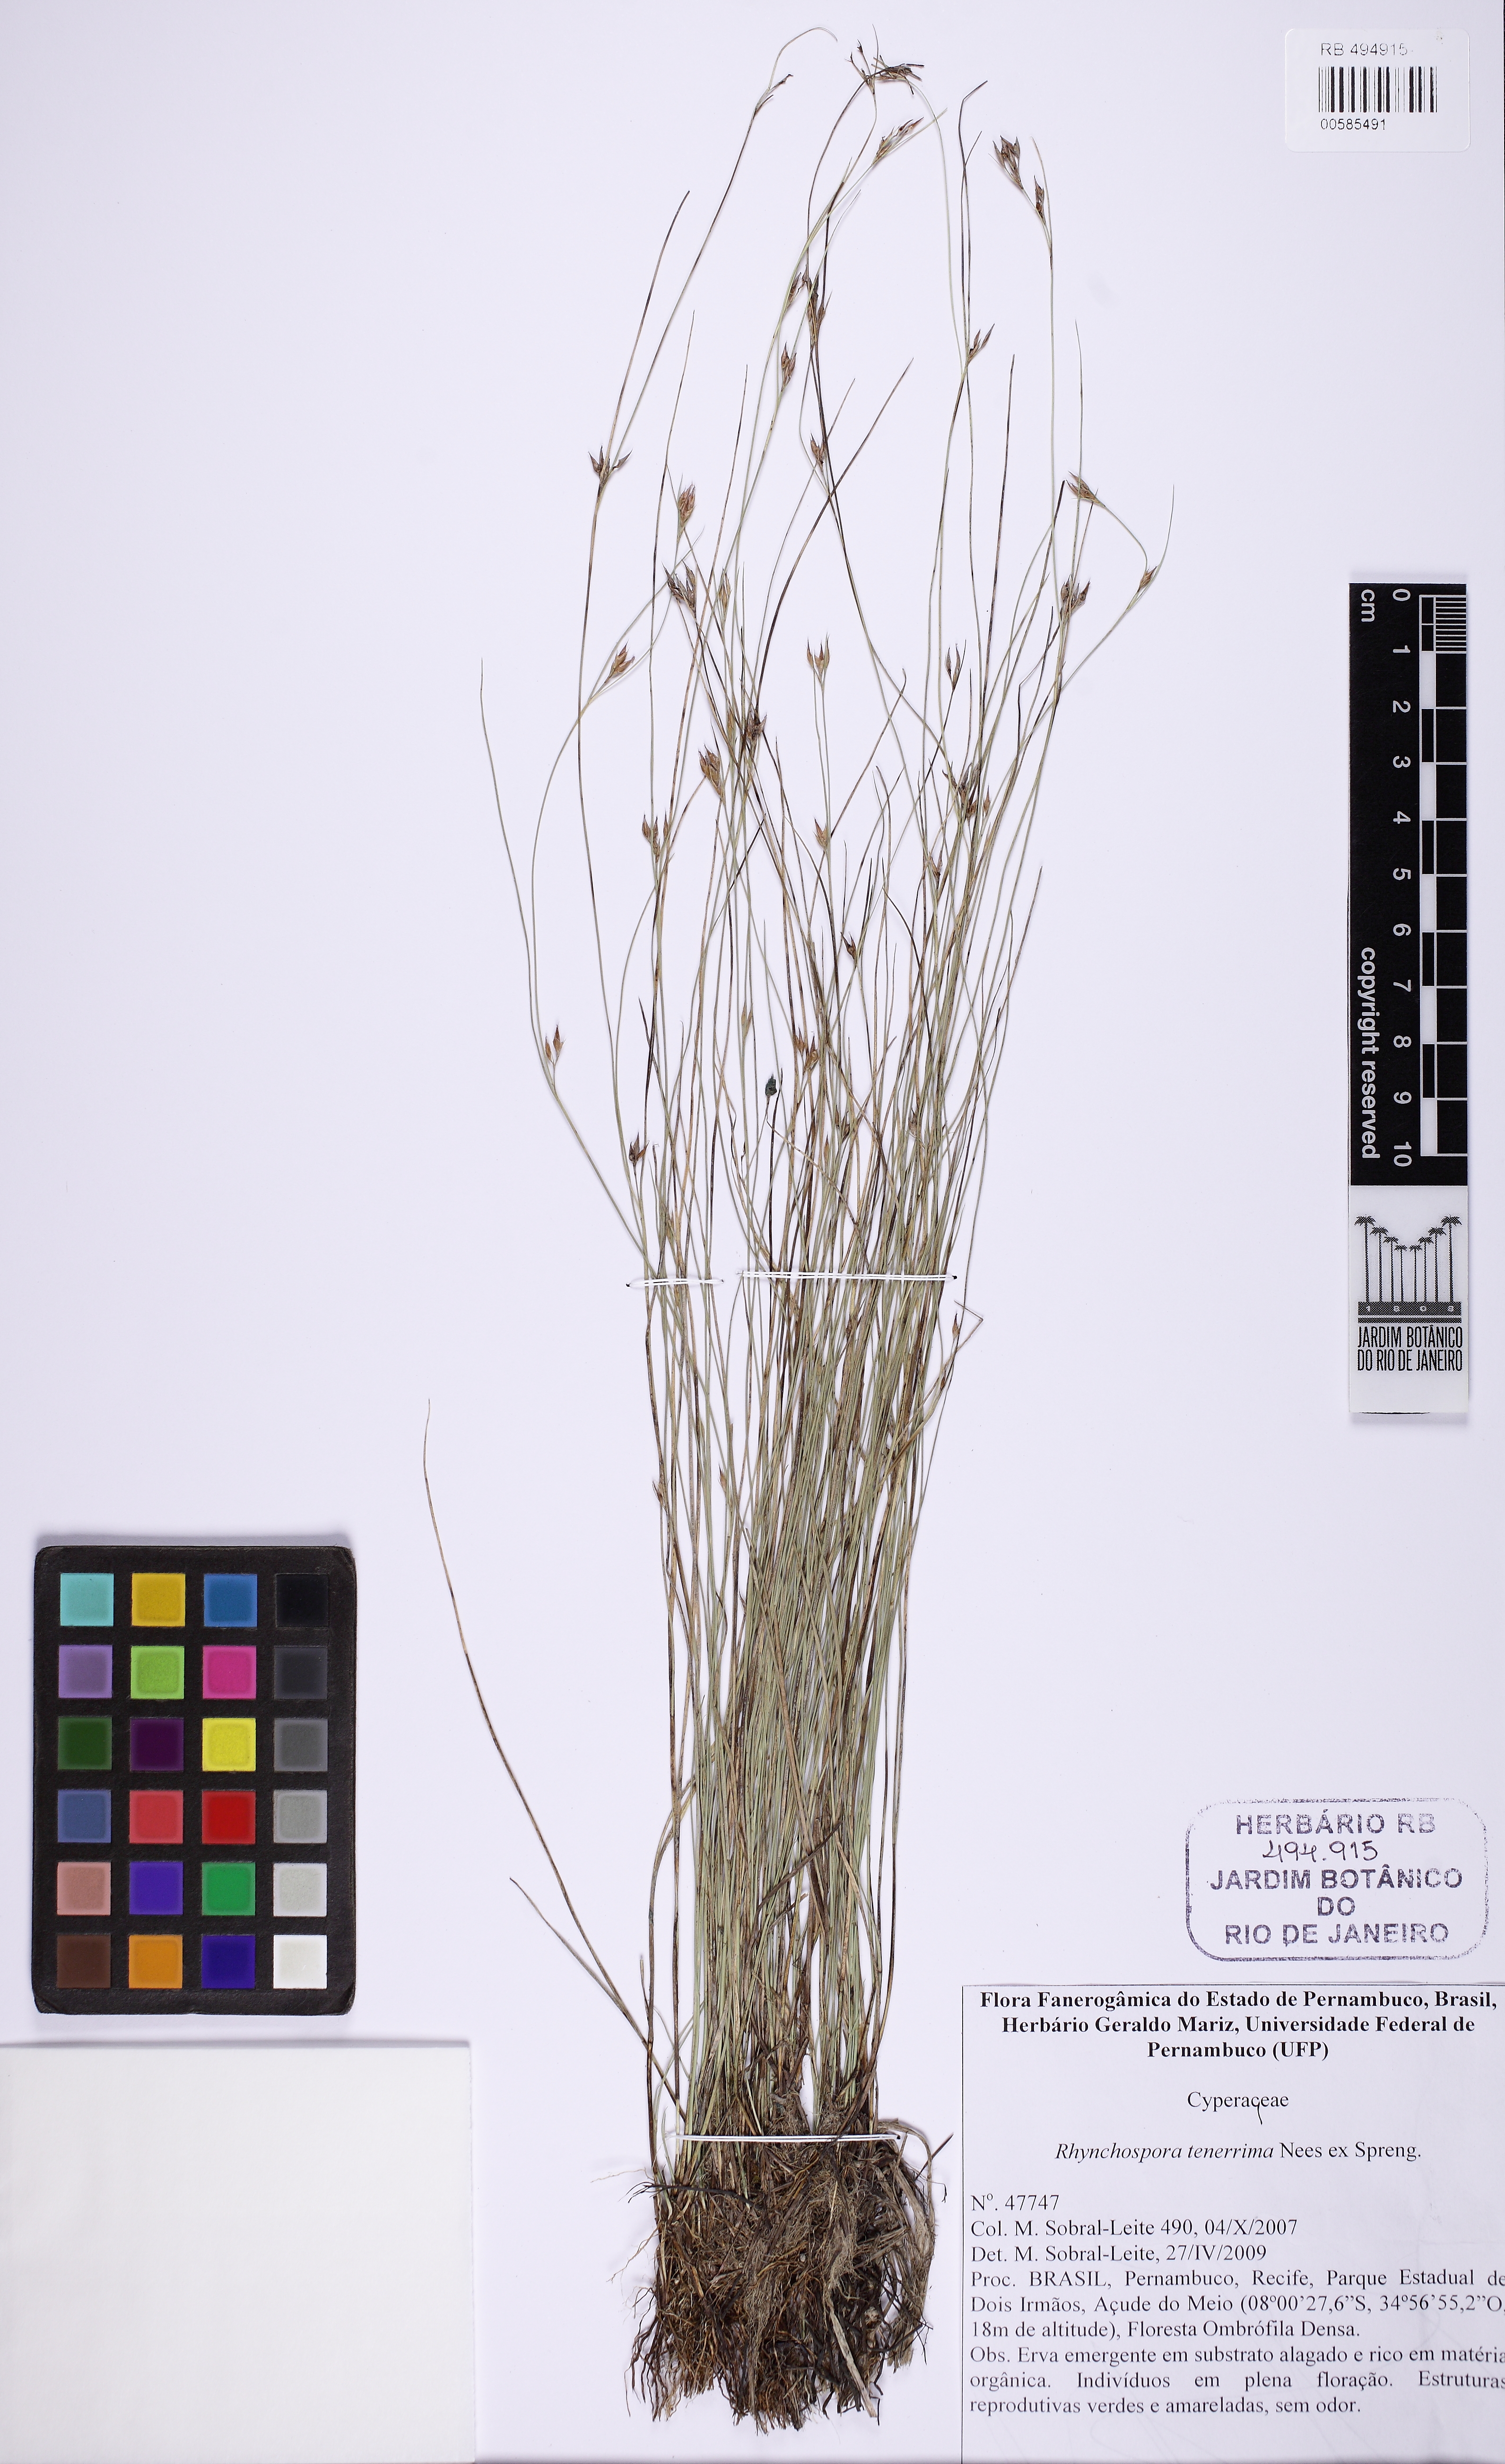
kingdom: Plantae
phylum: Tracheophyta
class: Liliopsida
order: Poales
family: Cyperaceae
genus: Rhynchospora
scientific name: Rhynchospora tenerrima
